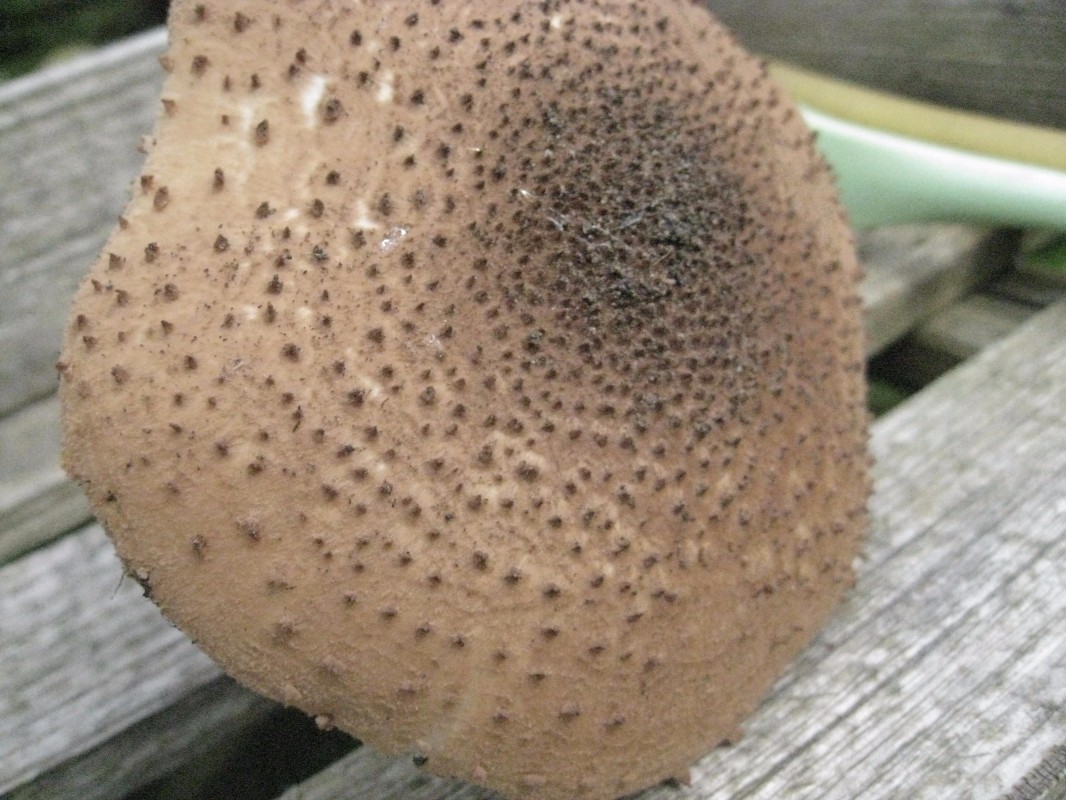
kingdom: Fungi
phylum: Basidiomycota
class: Agaricomycetes
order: Agaricales
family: Agaricaceae
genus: Echinoderma
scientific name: Echinoderma asperum
